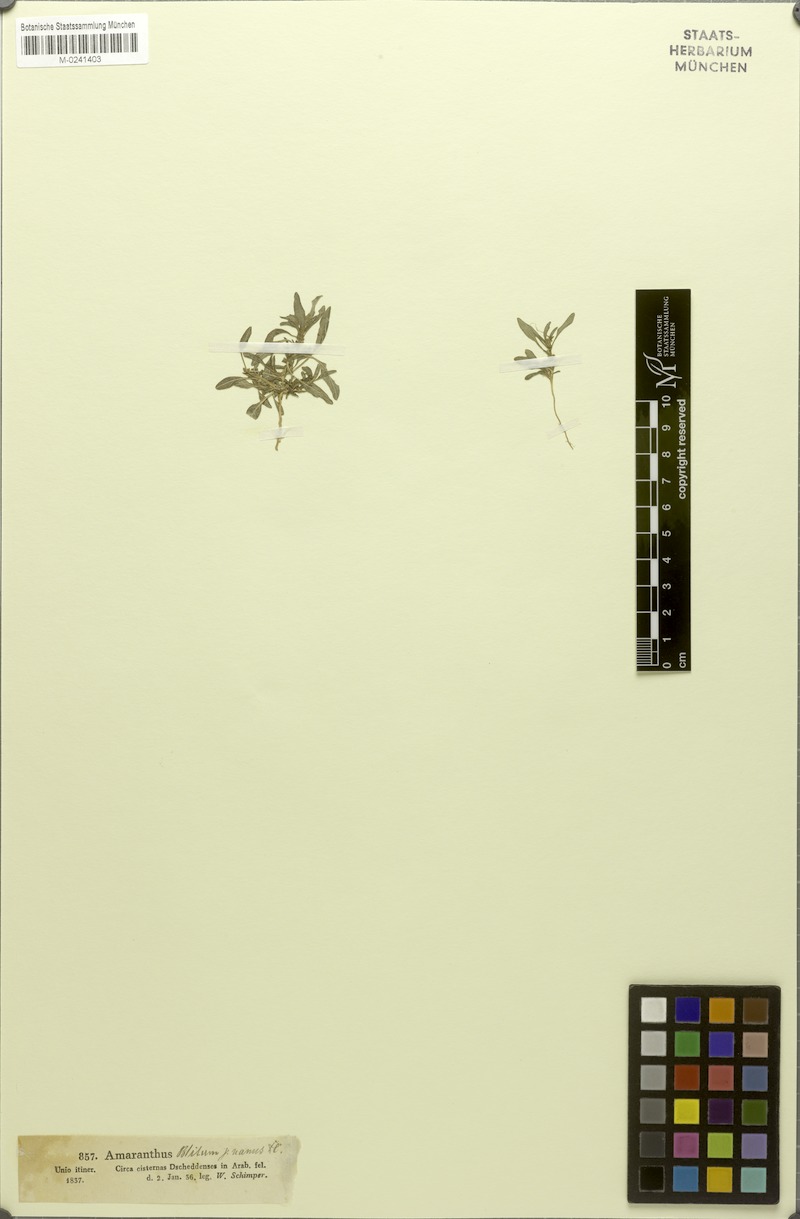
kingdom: Plantae
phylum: Tracheophyta
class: Magnoliopsida
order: Caryophyllales
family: Amaranthaceae
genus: Amaranthus
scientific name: Amaranthus graecizans
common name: Mediterranean amaranth
